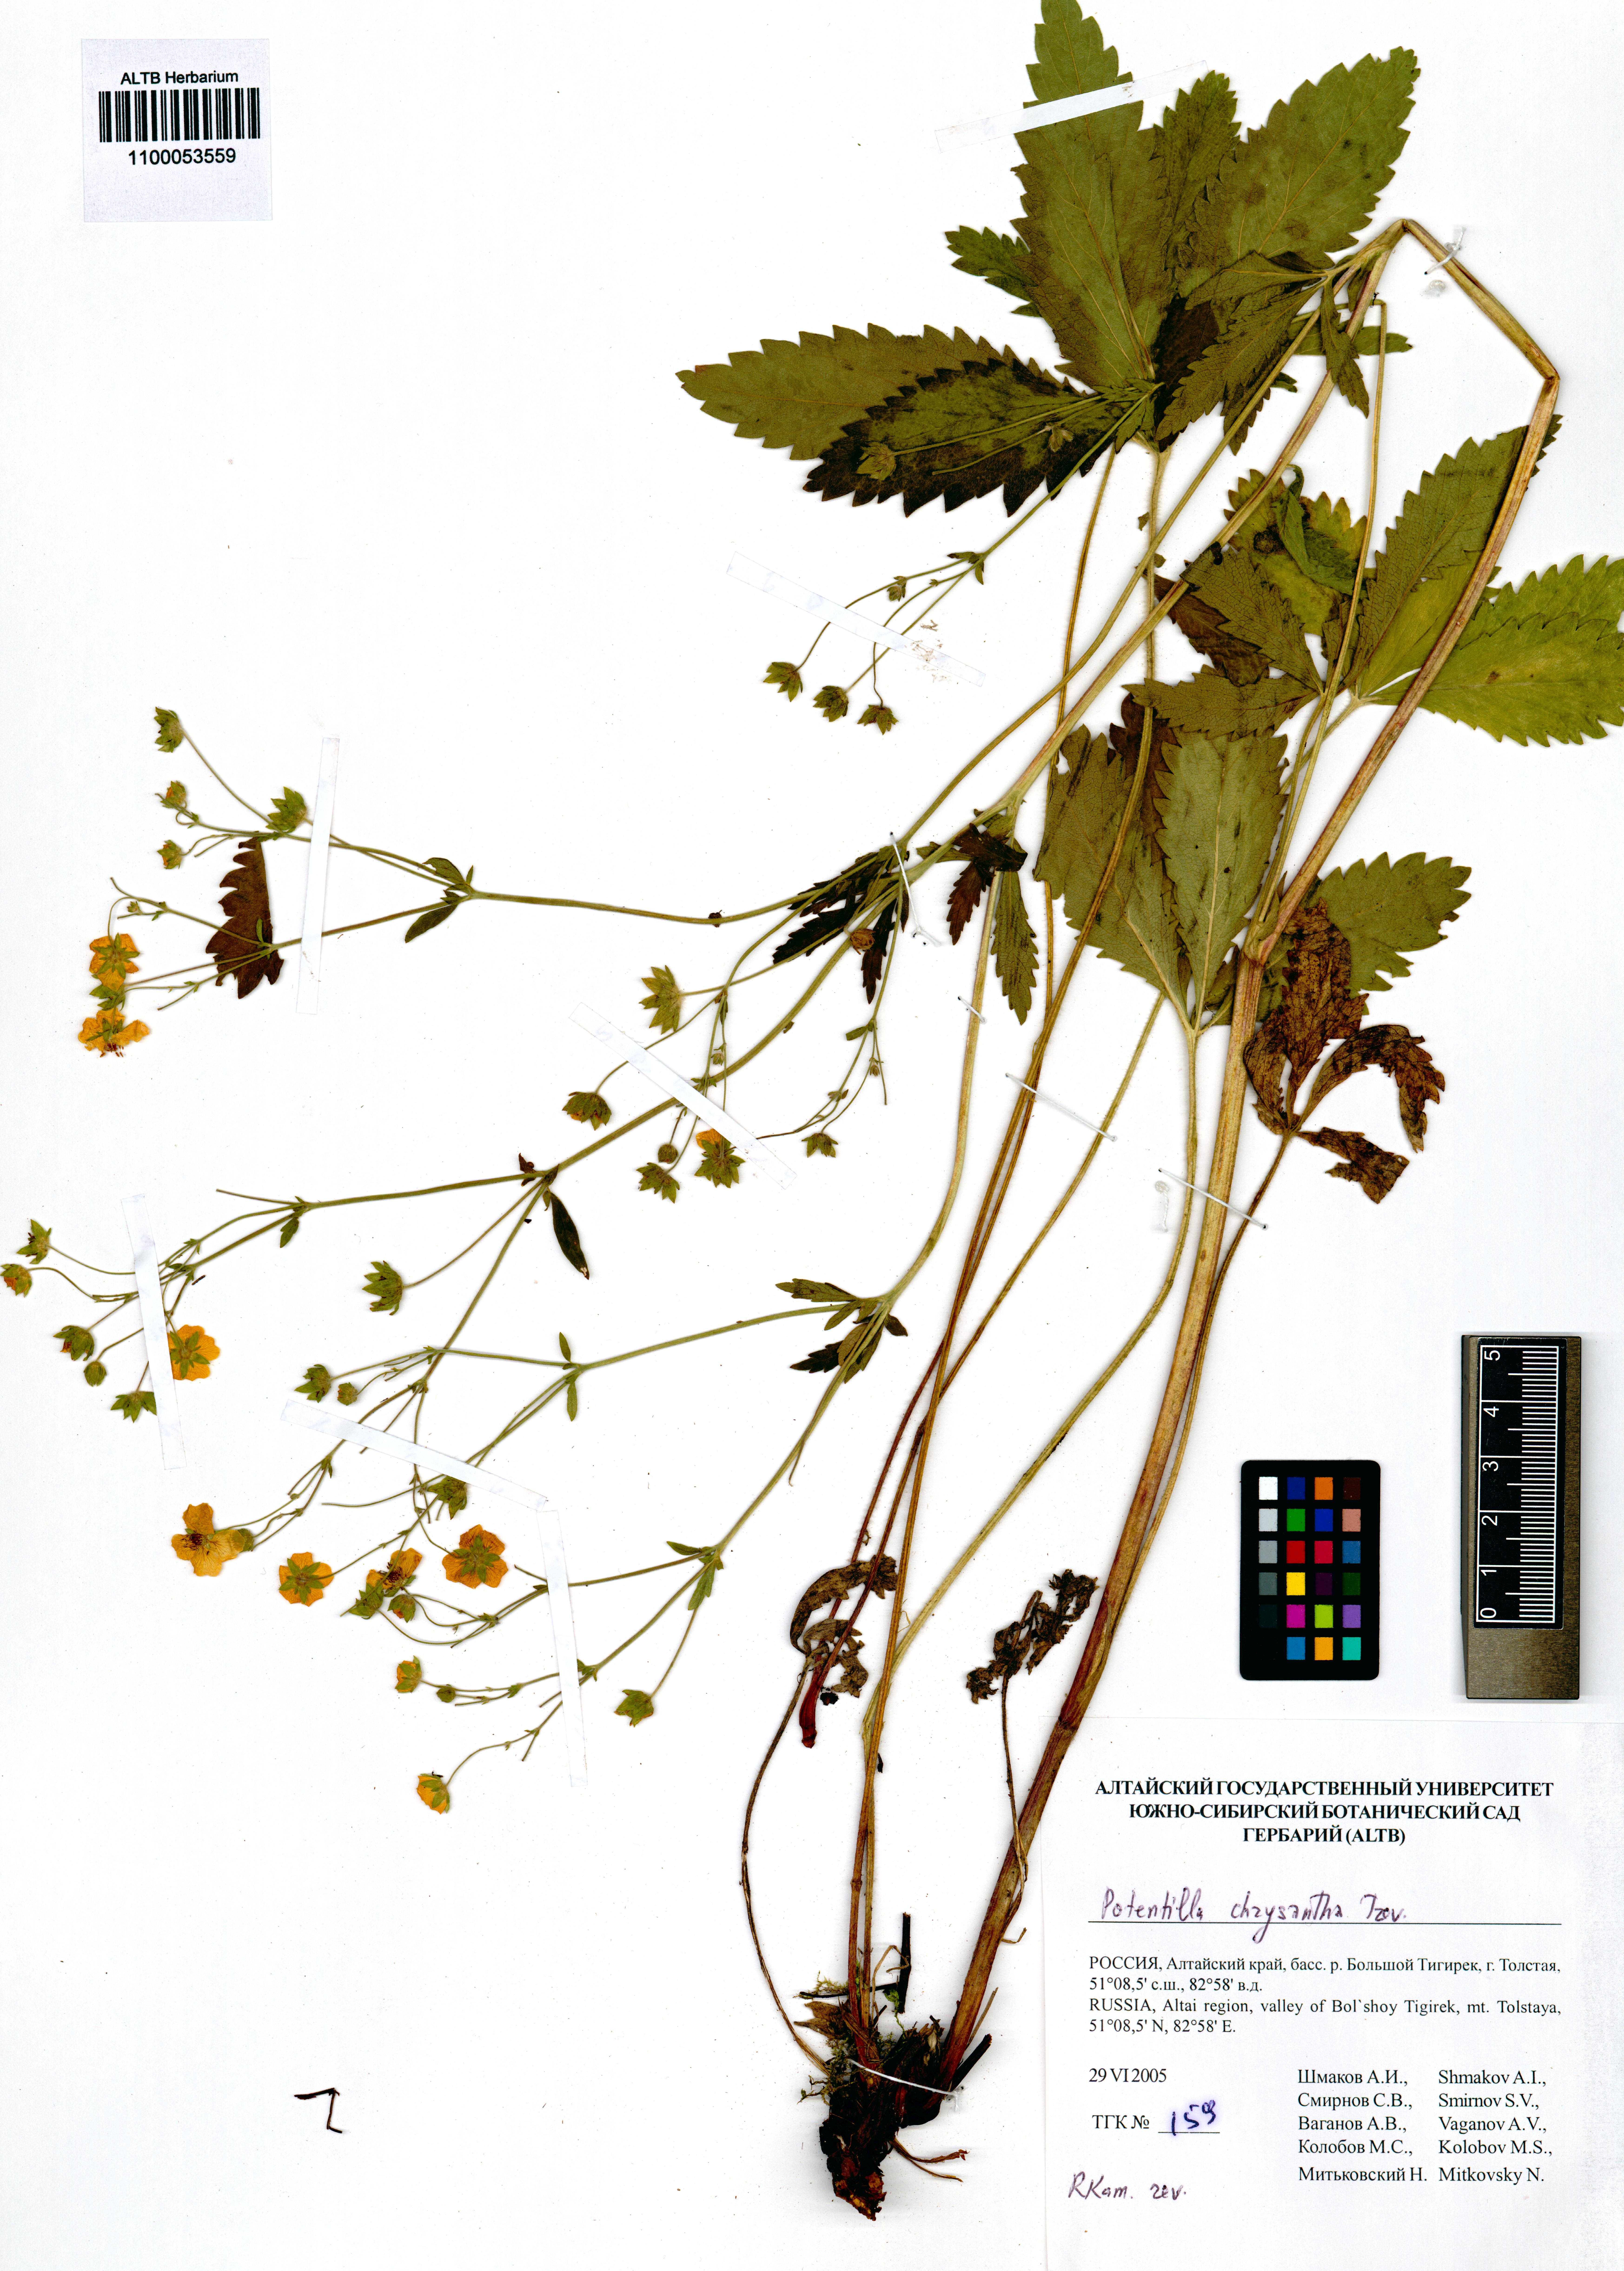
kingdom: Plantae
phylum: Tracheophyta
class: Magnoliopsida
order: Rosales
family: Rosaceae
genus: Potentilla
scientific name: Potentilla chrysantha
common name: Thuringian cinquefoil
